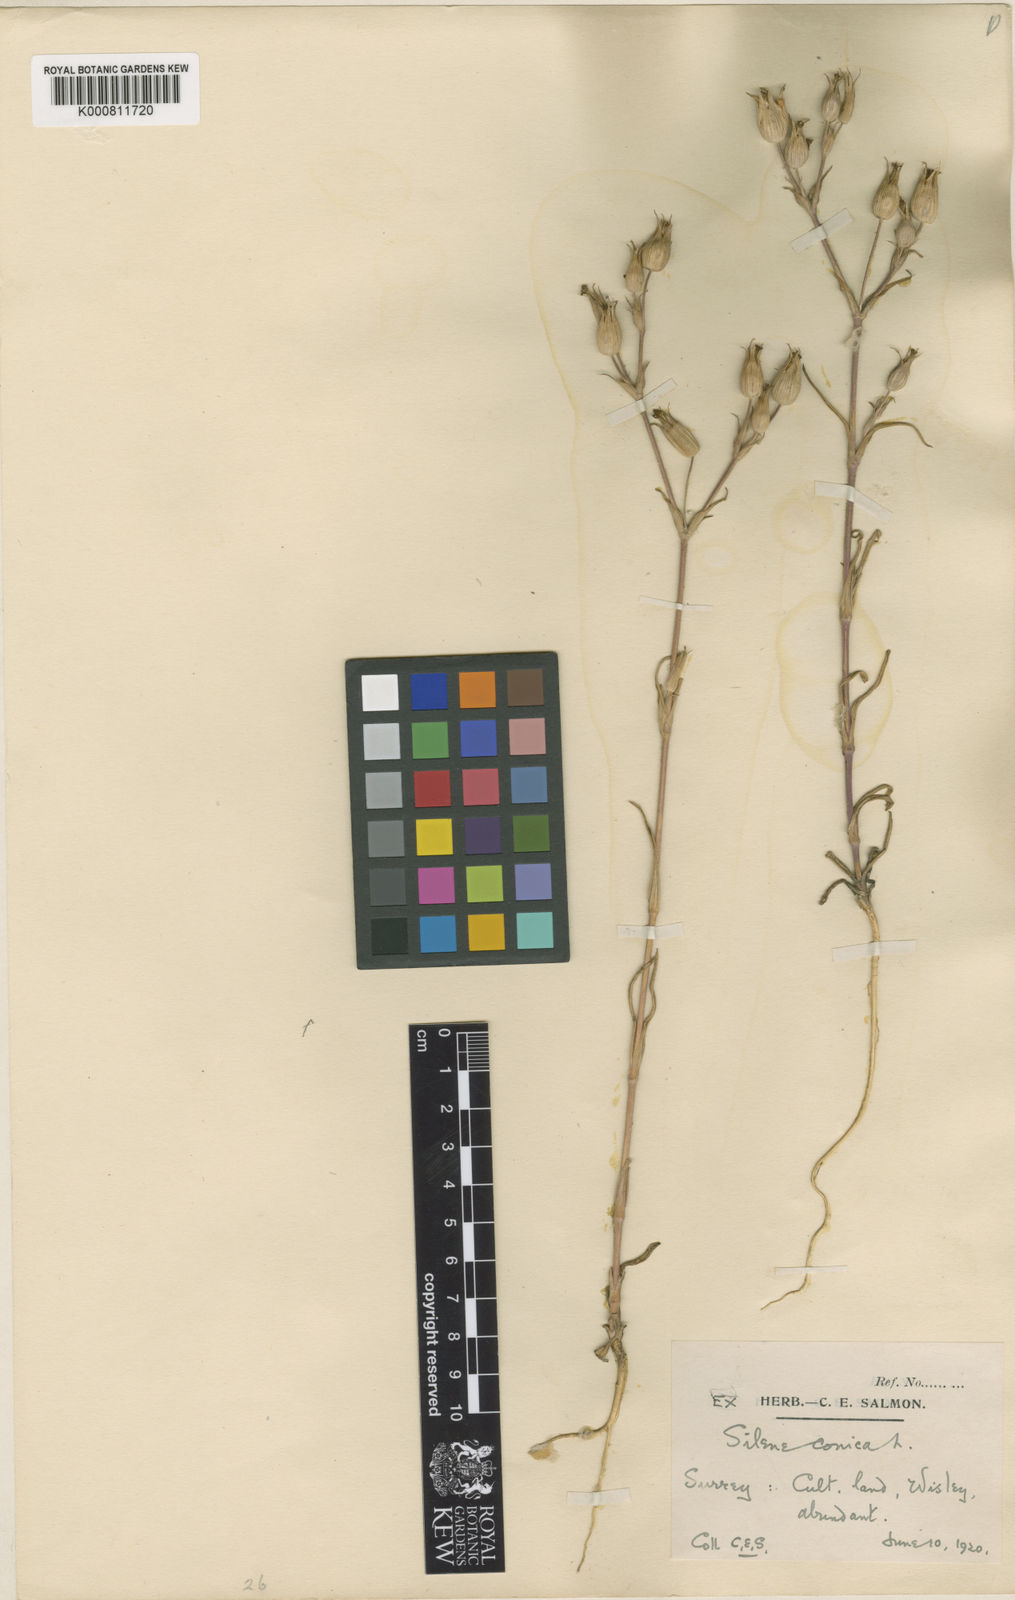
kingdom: Plantae
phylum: Tracheophyta
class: Magnoliopsida
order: Caryophyllales
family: Caryophyllaceae
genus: Silene
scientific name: Silene conica
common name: Sand catchfly
